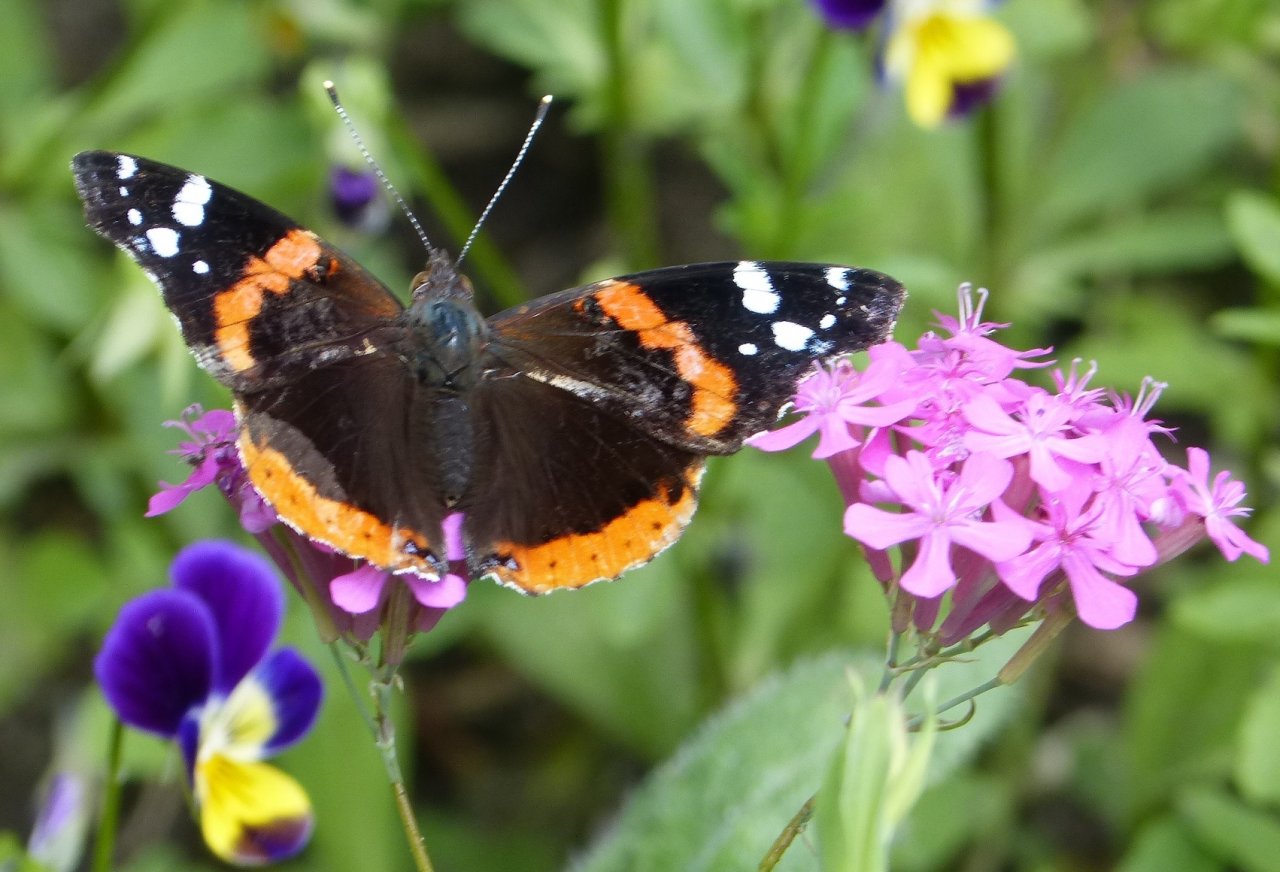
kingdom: Animalia
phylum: Arthropoda
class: Insecta
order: Lepidoptera
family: Nymphalidae
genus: Vanessa
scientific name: Vanessa atalanta
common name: Red Admiral
